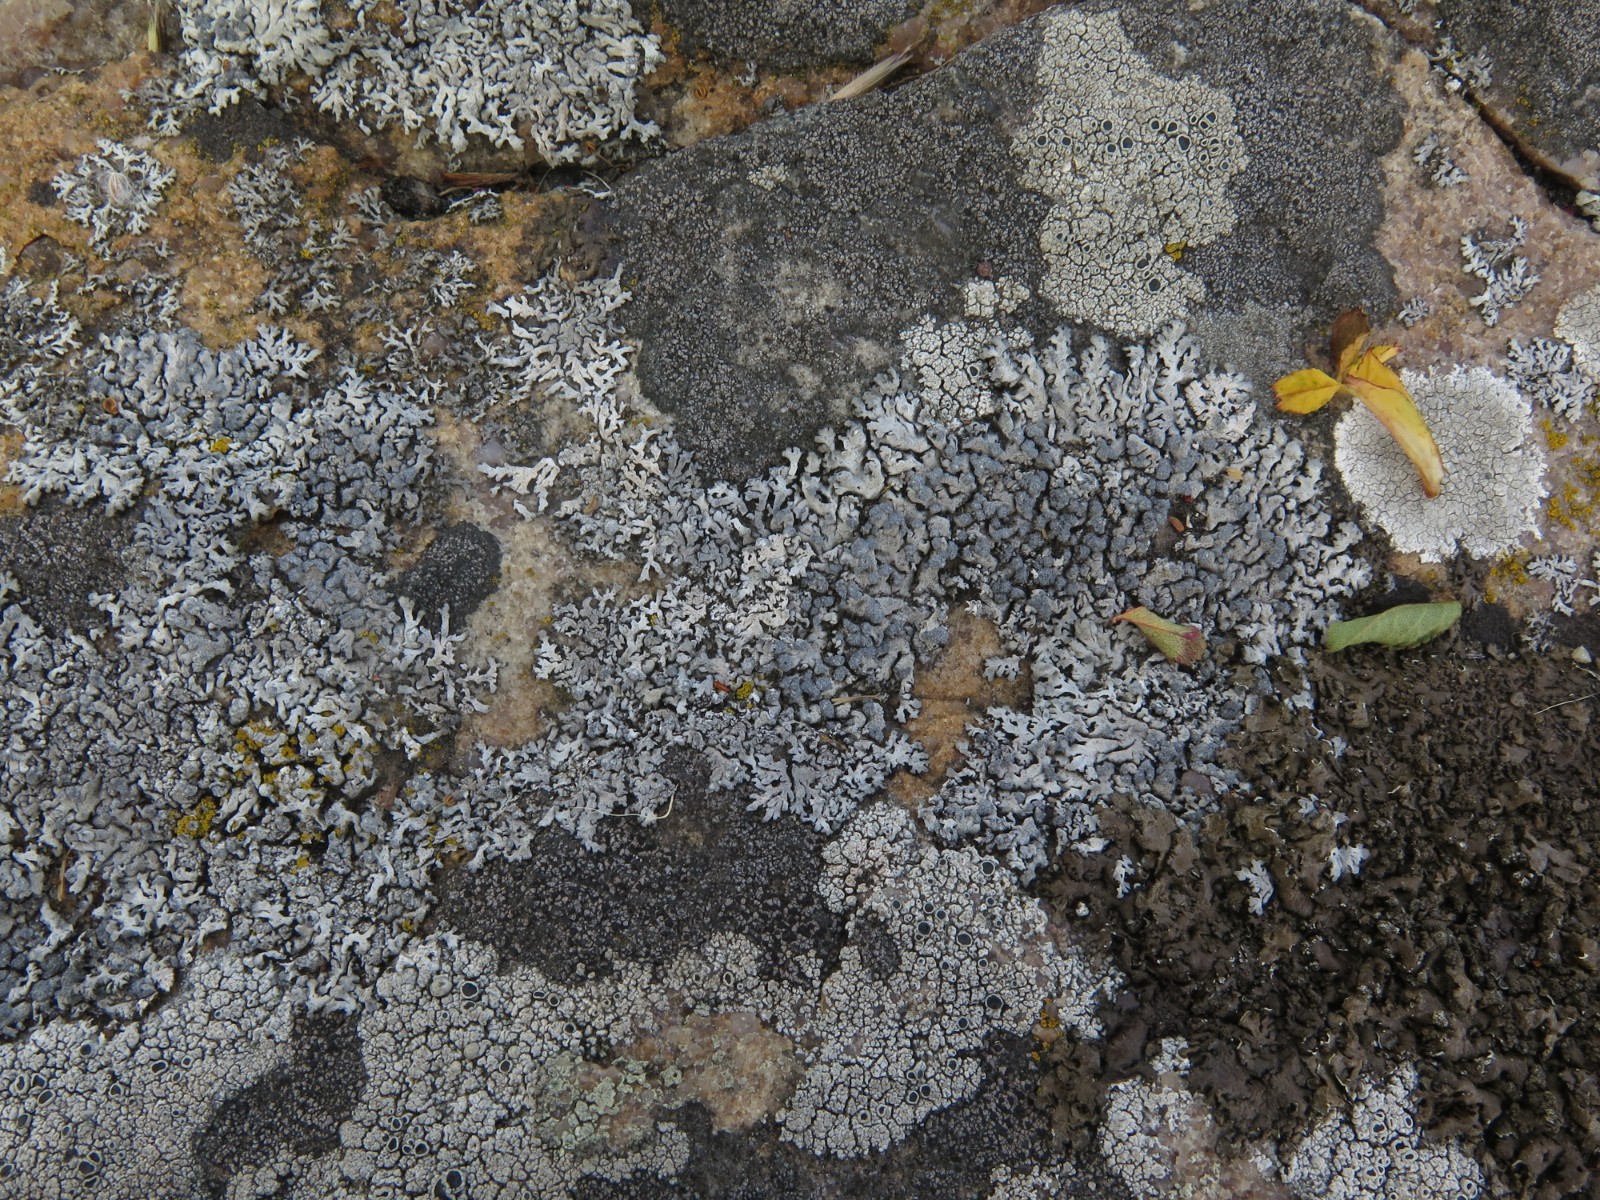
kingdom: Fungi
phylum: Ascomycota
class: Lecanoromycetes
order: Caliciales
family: Physciaceae
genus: Physcia
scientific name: Physcia caesia
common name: blågrå rosetlav
